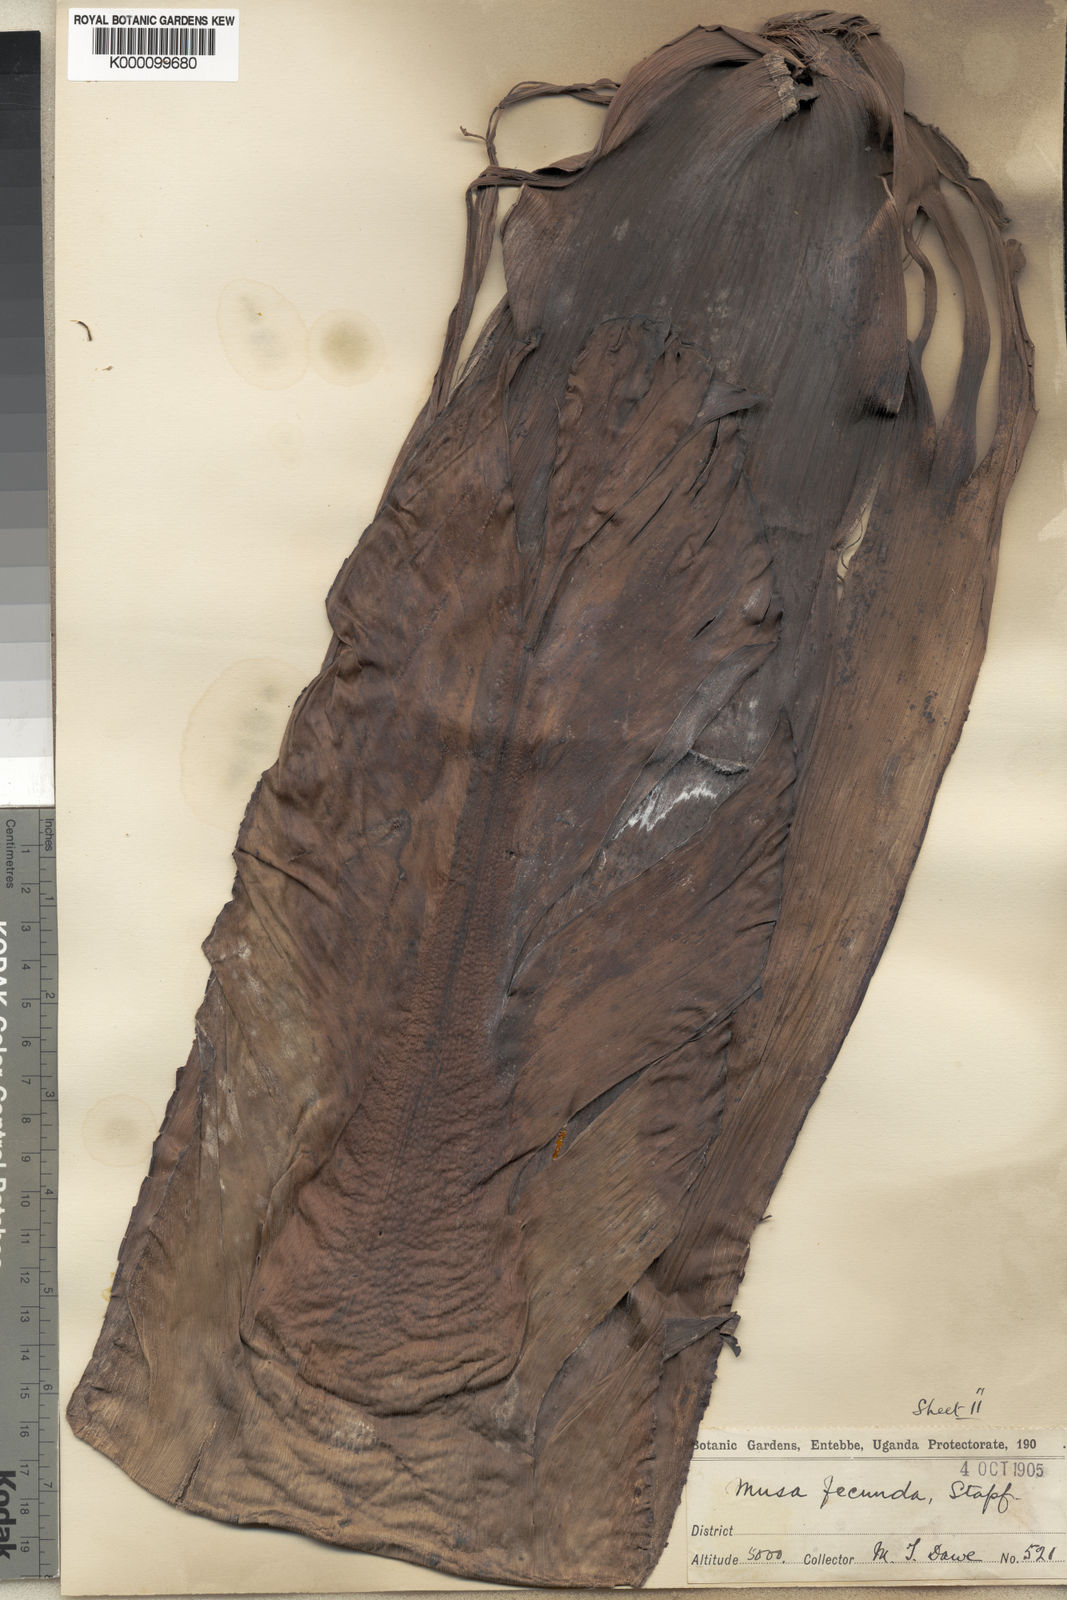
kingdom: Plantae
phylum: Tracheophyta
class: Liliopsida
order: Zingiberales
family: Musaceae
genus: Ensete
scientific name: Ensete ventricosum
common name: Abyssinian banana
